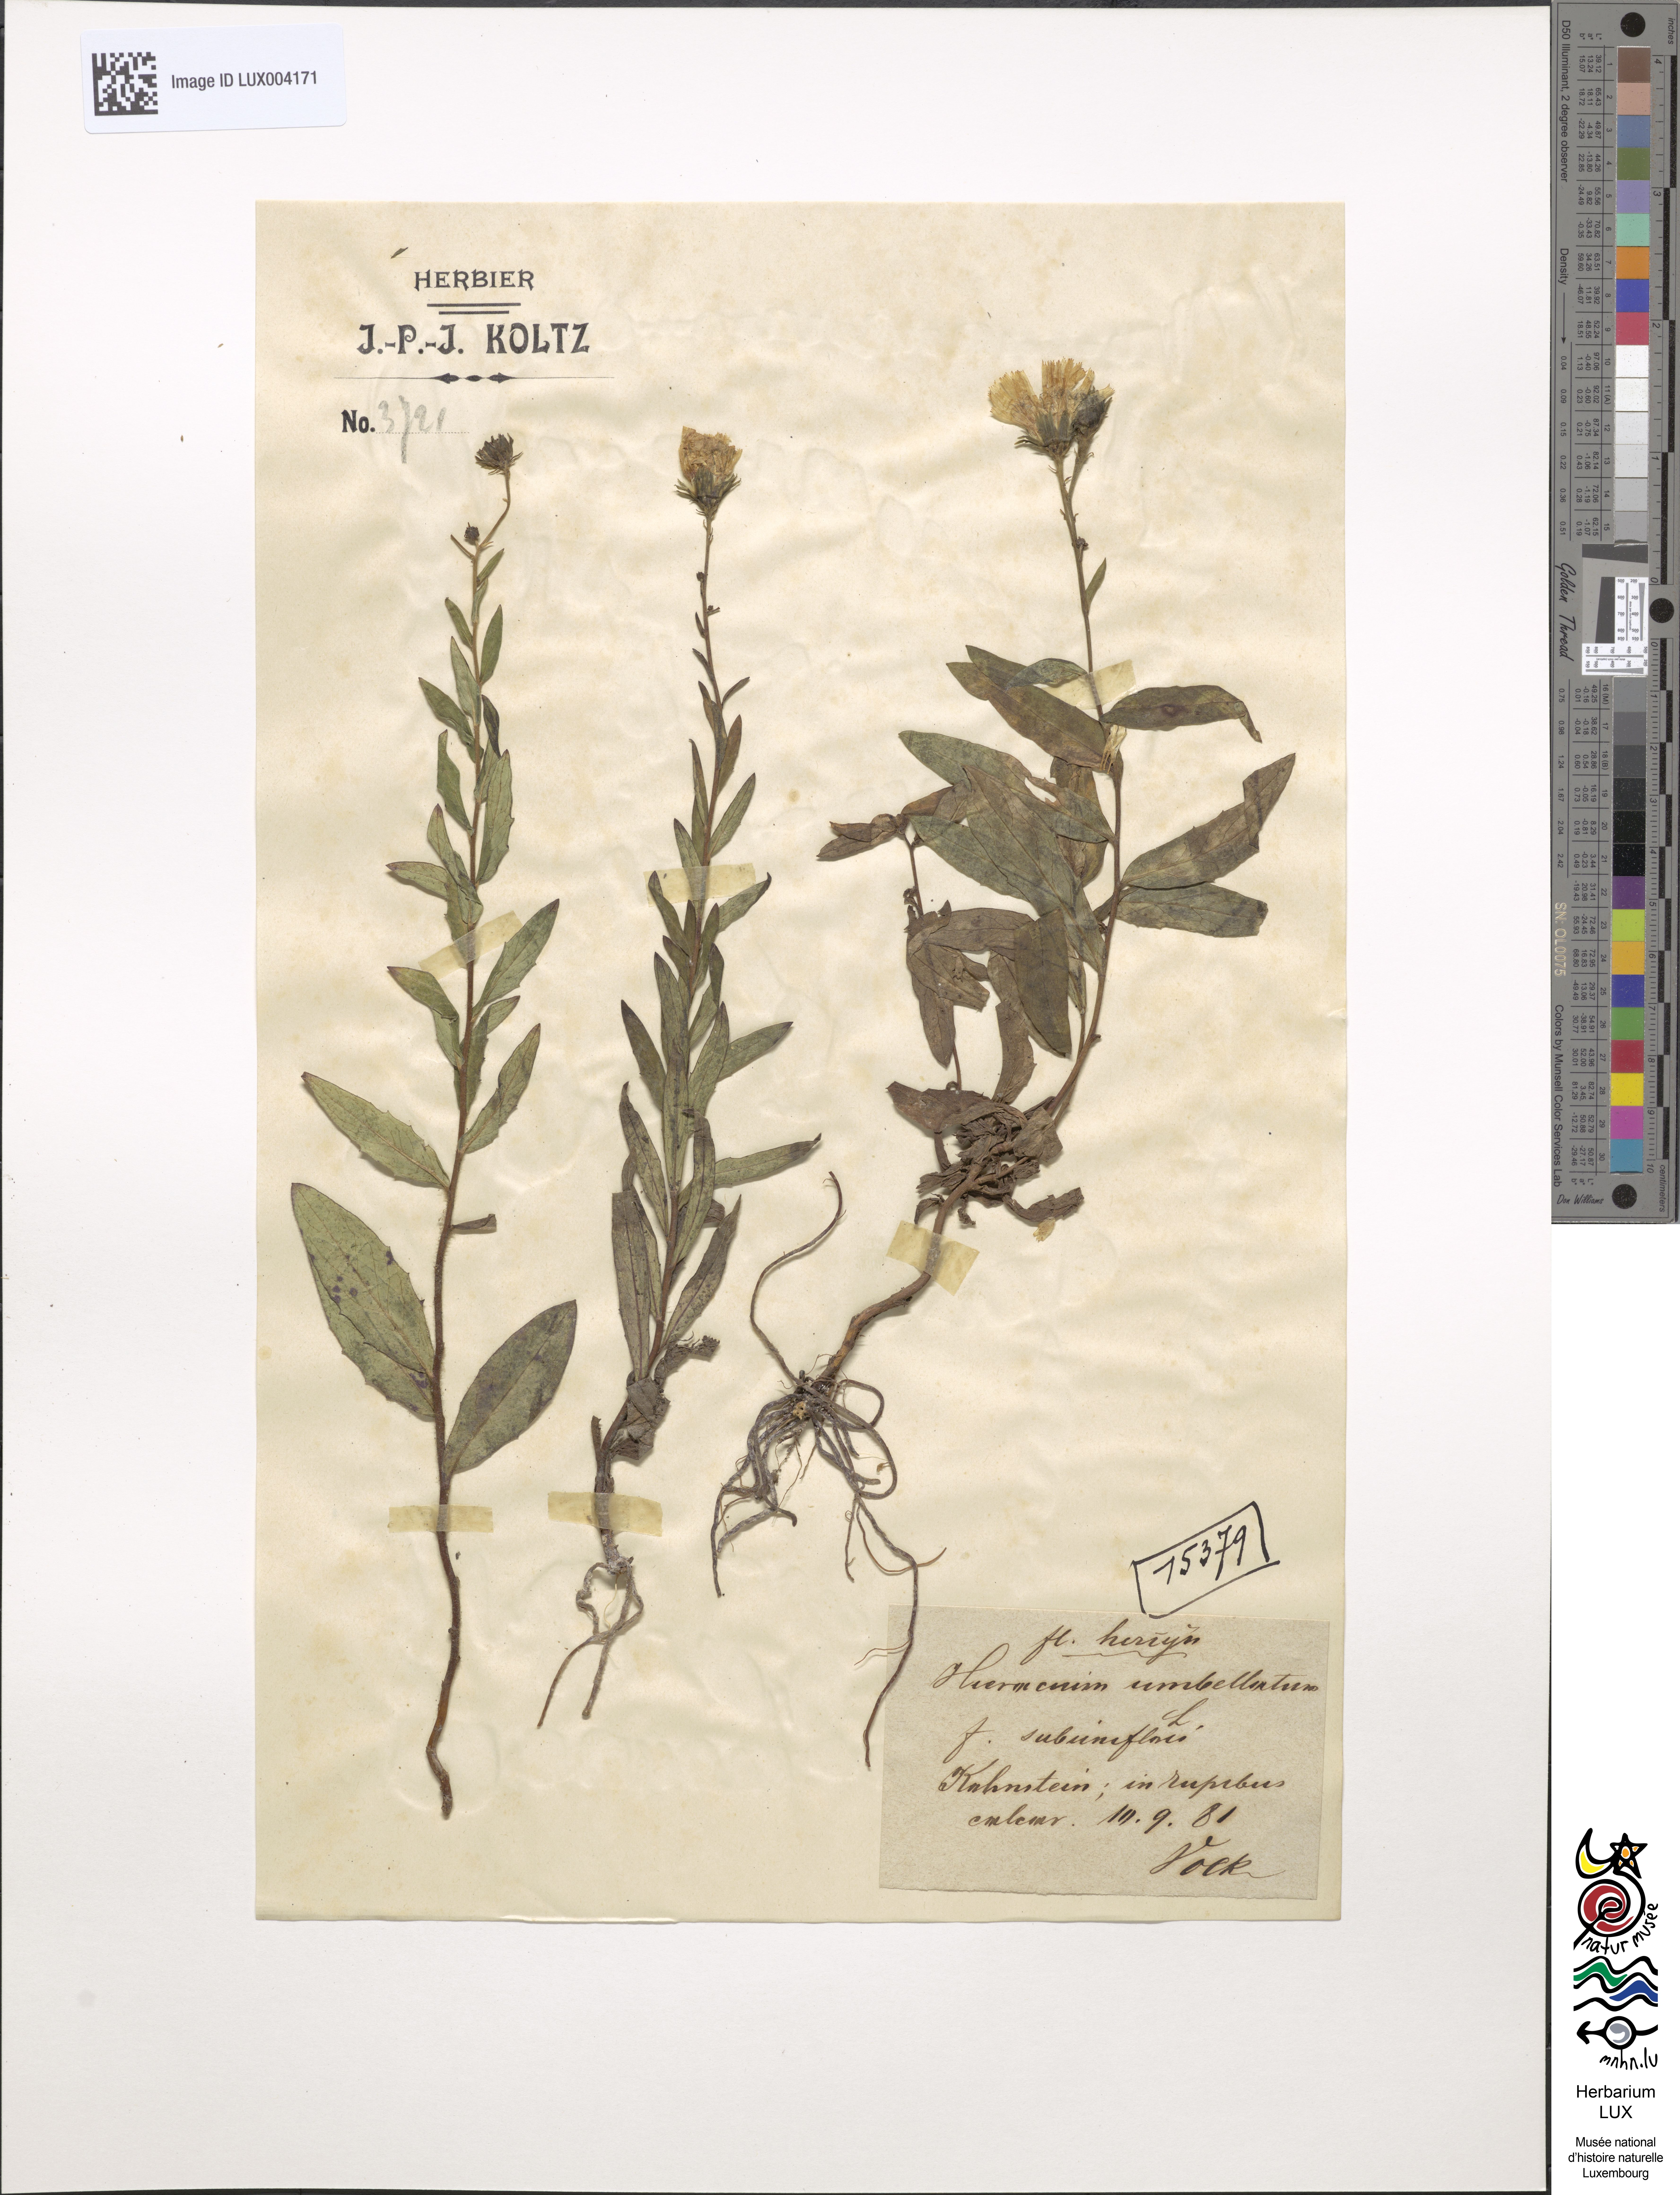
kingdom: Plantae
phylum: Tracheophyta
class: Magnoliopsida
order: Asterales
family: Asteraceae
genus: Hieracium
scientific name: Hieracium umbellatum
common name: Northern hawkweed
